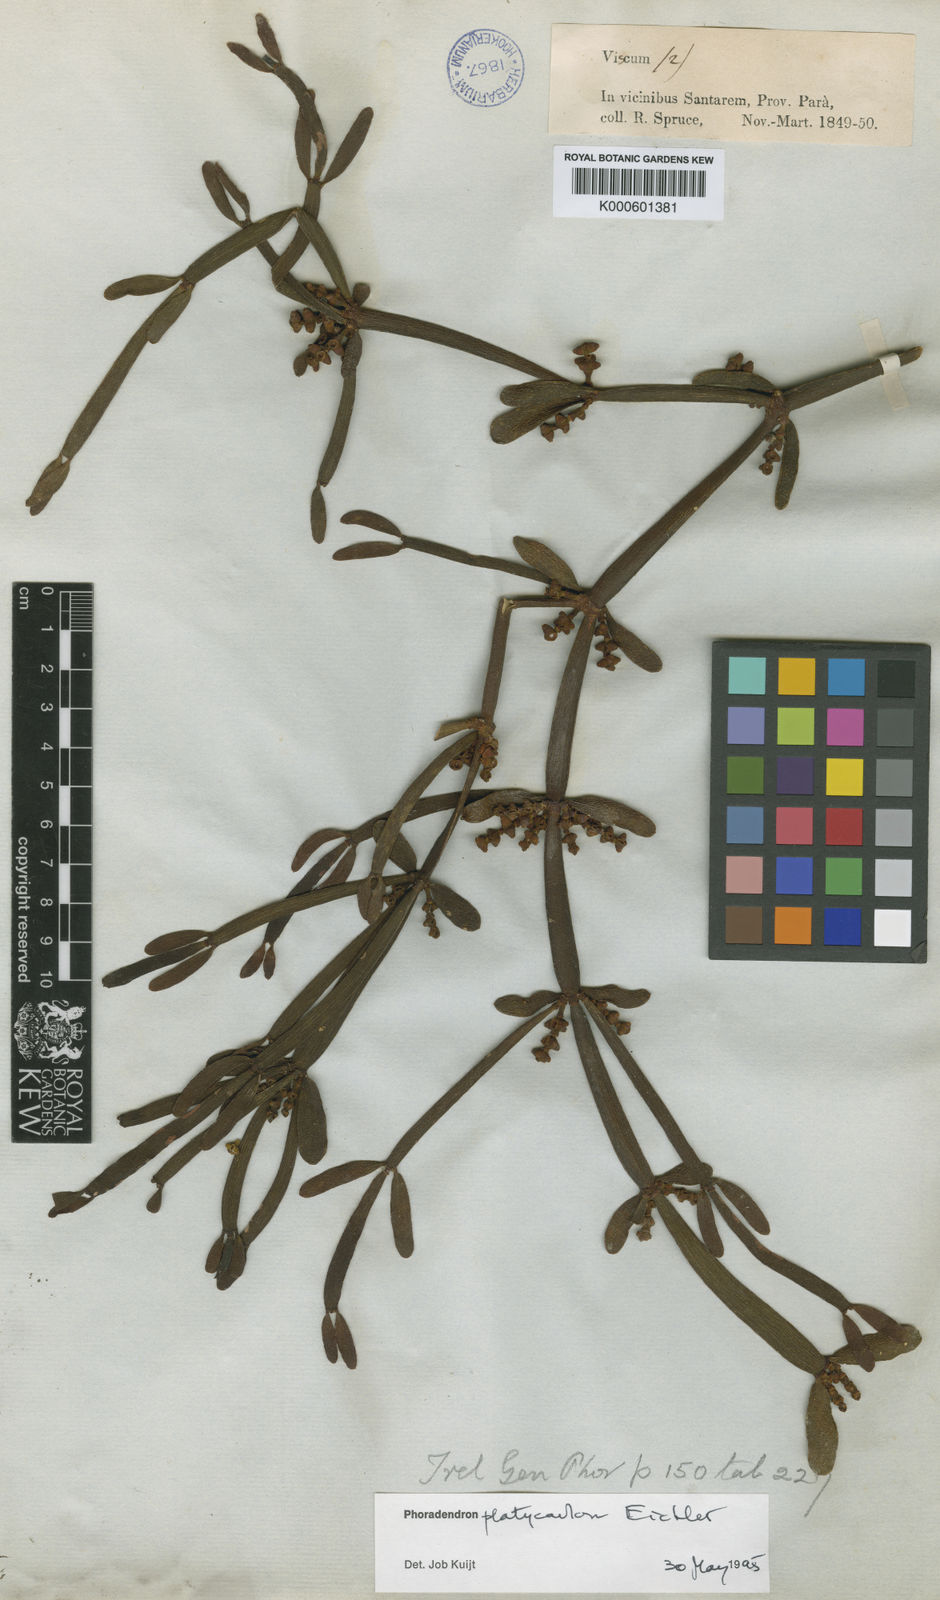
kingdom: Plantae
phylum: Tracheophyta
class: Magnoliopsida
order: Santalales
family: Viscaceae
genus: Phoradendron
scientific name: Phoradendron planiphyllum
